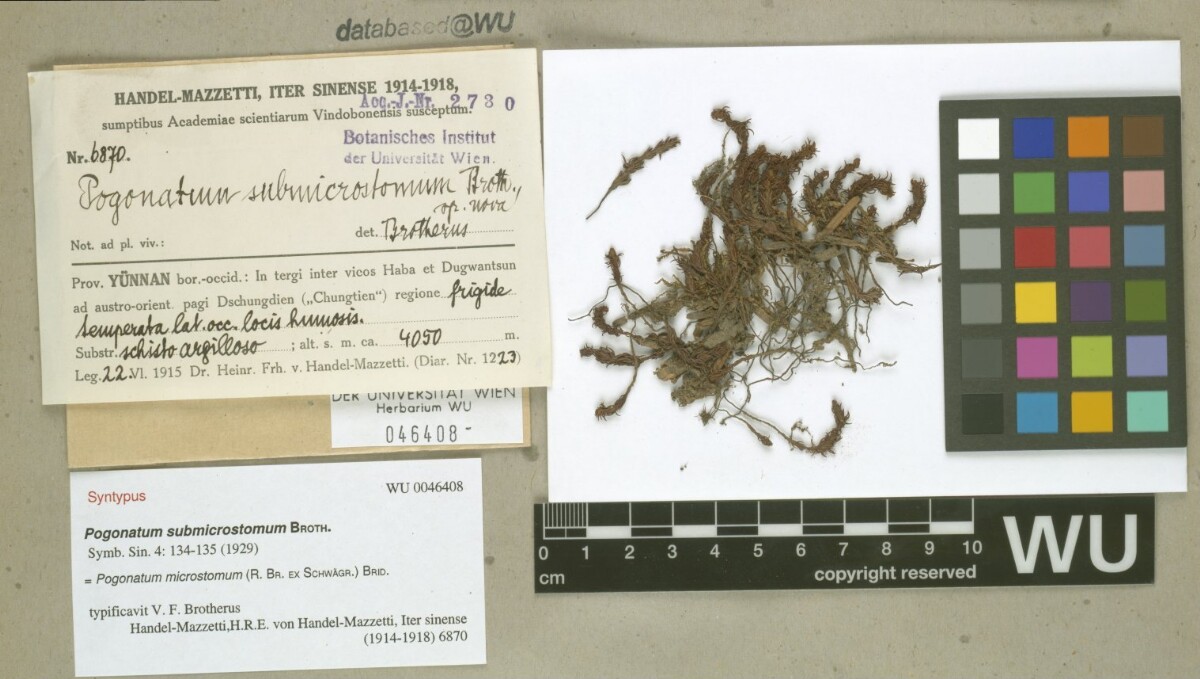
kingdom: Plantae
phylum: Bryophyta
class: Polytrichopsida
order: Polytrichales
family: Polytrichaceae
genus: Pogonatum
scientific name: Pogonatum microstomum
